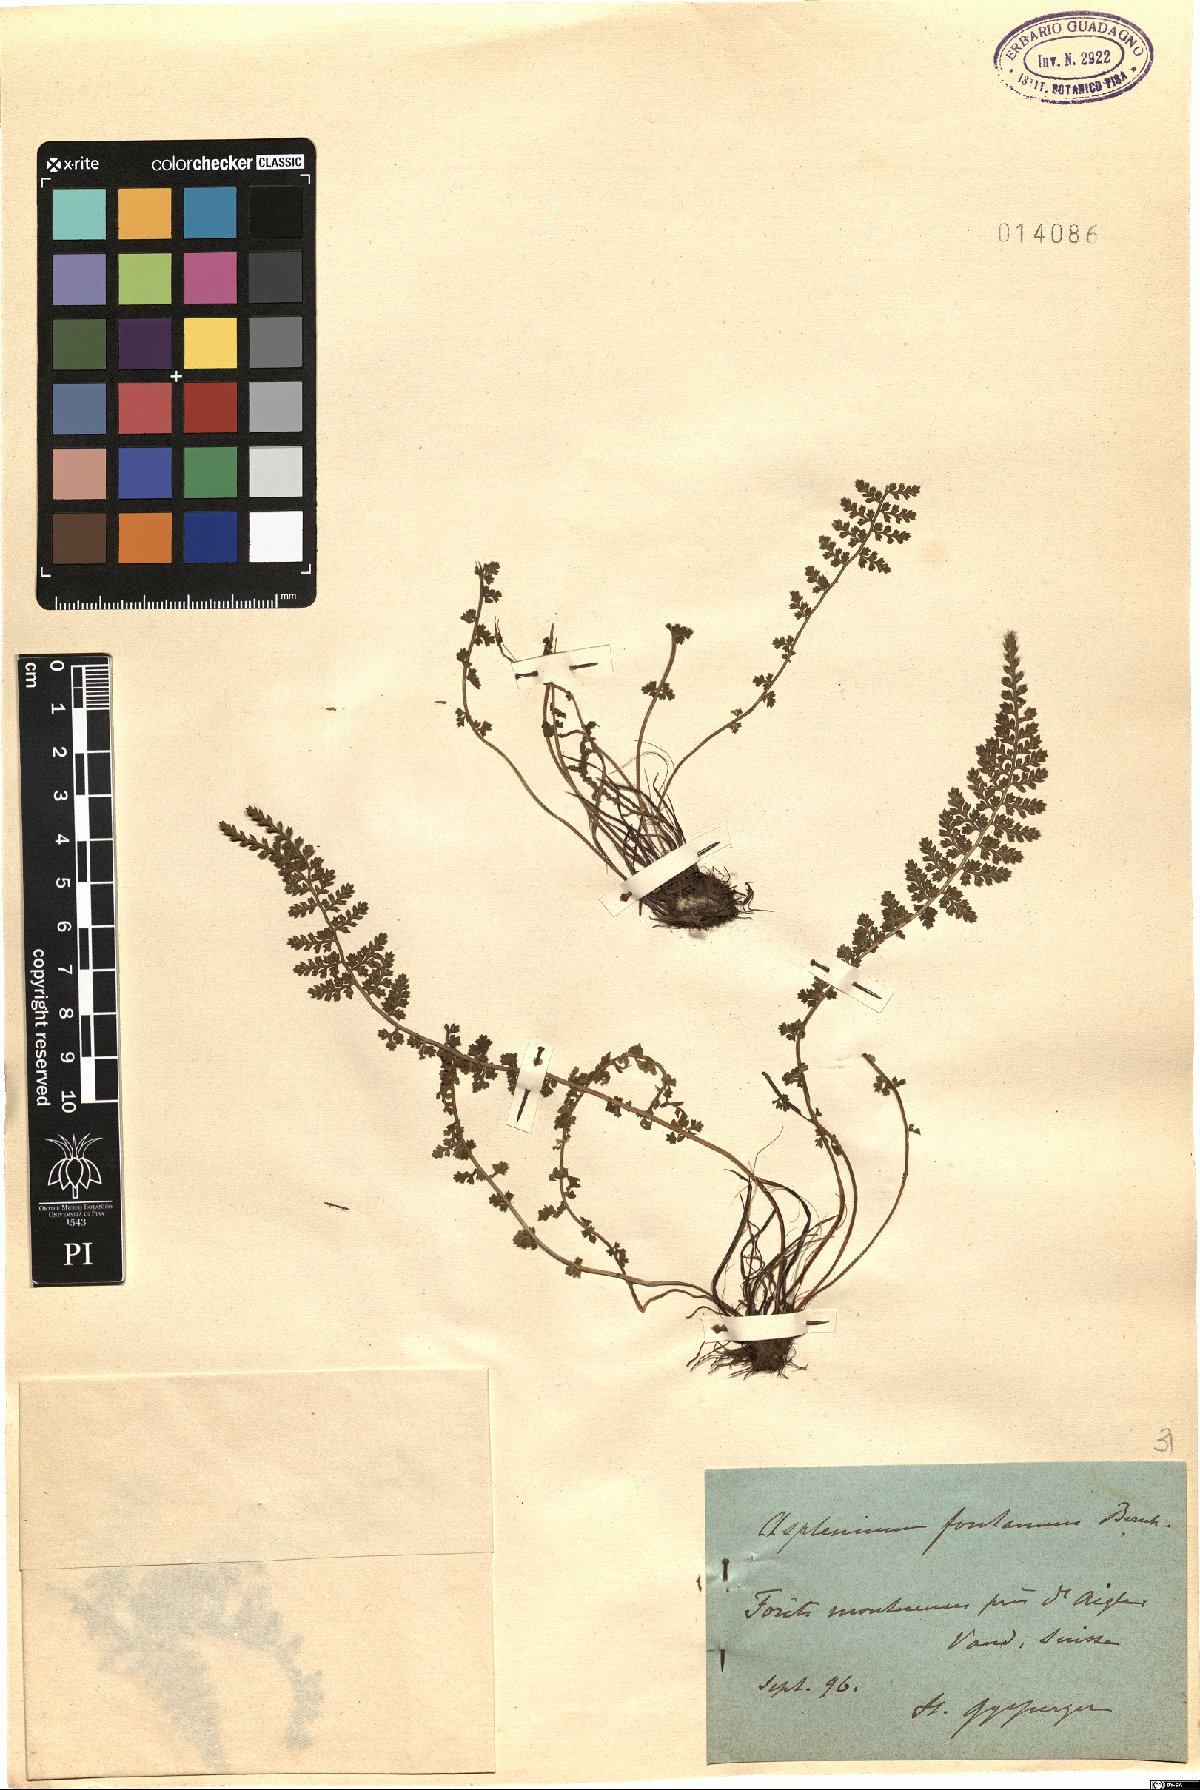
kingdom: Plantae
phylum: Tracheophyta
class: Polypodiopsida
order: Polypodiales
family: Aspleniaceae
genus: Asplenium
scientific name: Asplenium fontanum
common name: Fountain spleenwort
